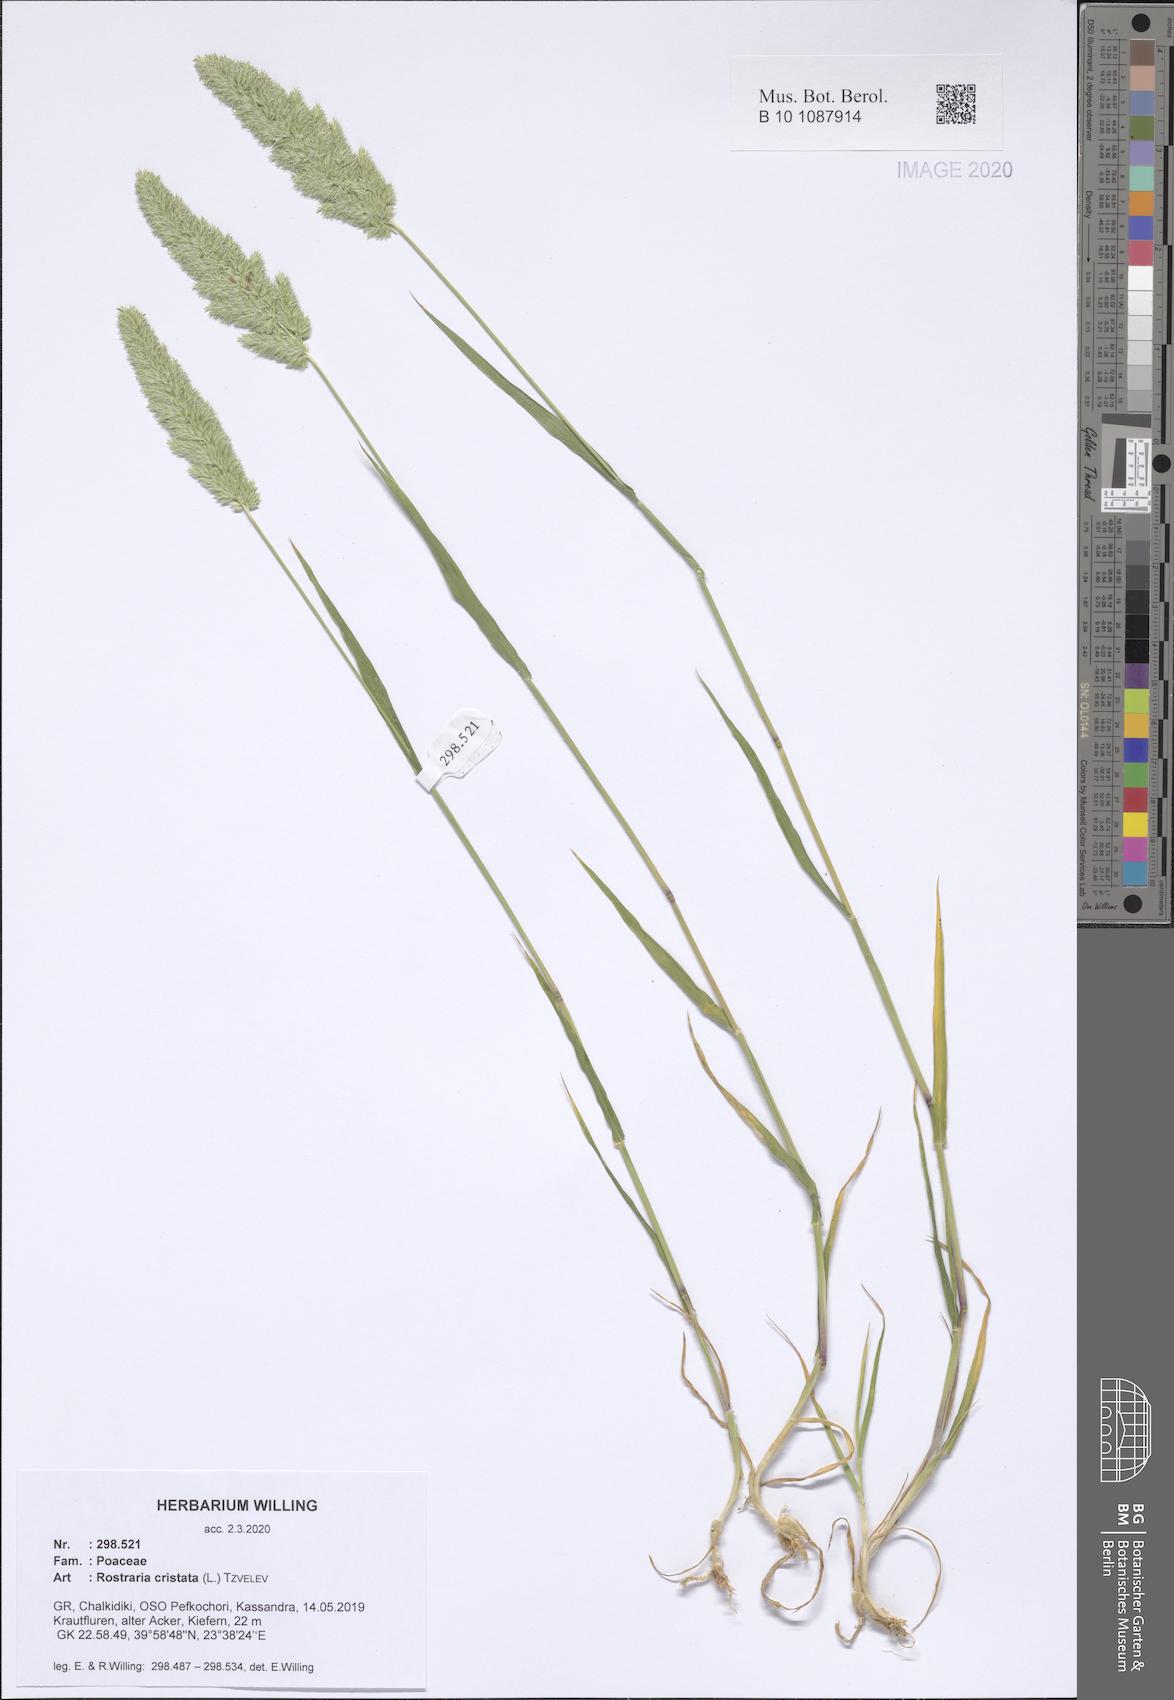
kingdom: Plantae
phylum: Tracheophyta
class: Liliopsida
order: Poales
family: Poaceae
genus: Rostraria
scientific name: Rostraria cristata
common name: Mediterranean hair-grass
